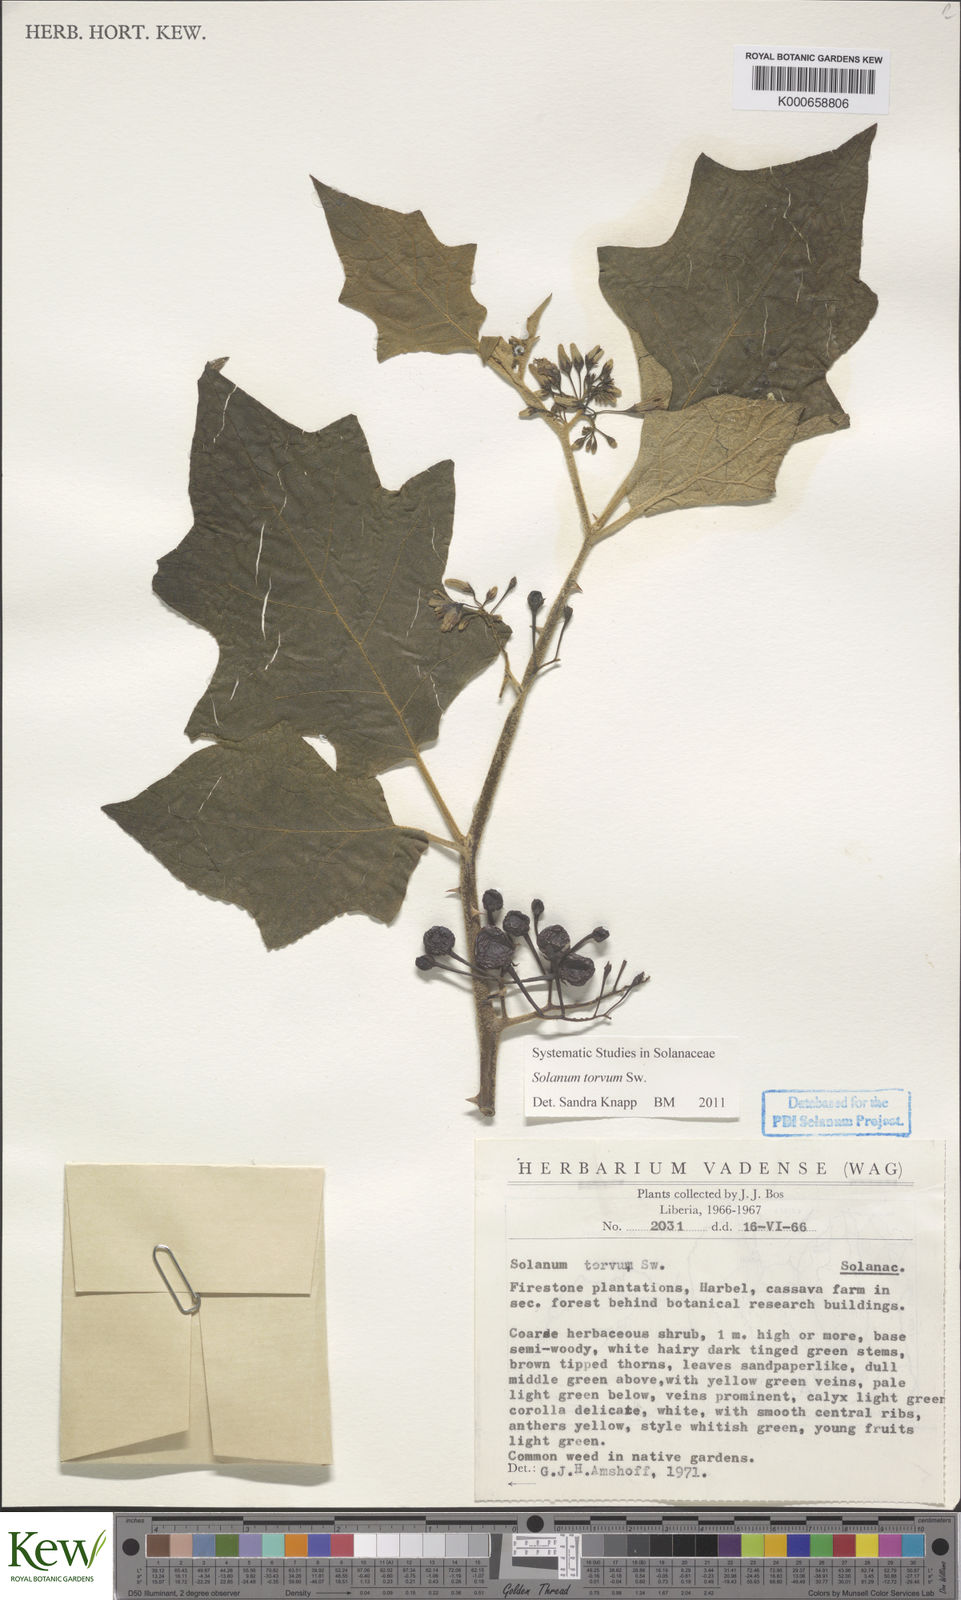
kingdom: Plantae
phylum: Tracheophyta
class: Magnoliopsida
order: Solanales
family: Solanaceae
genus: Solanum
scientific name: Solanum torvum
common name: Turkey berry
